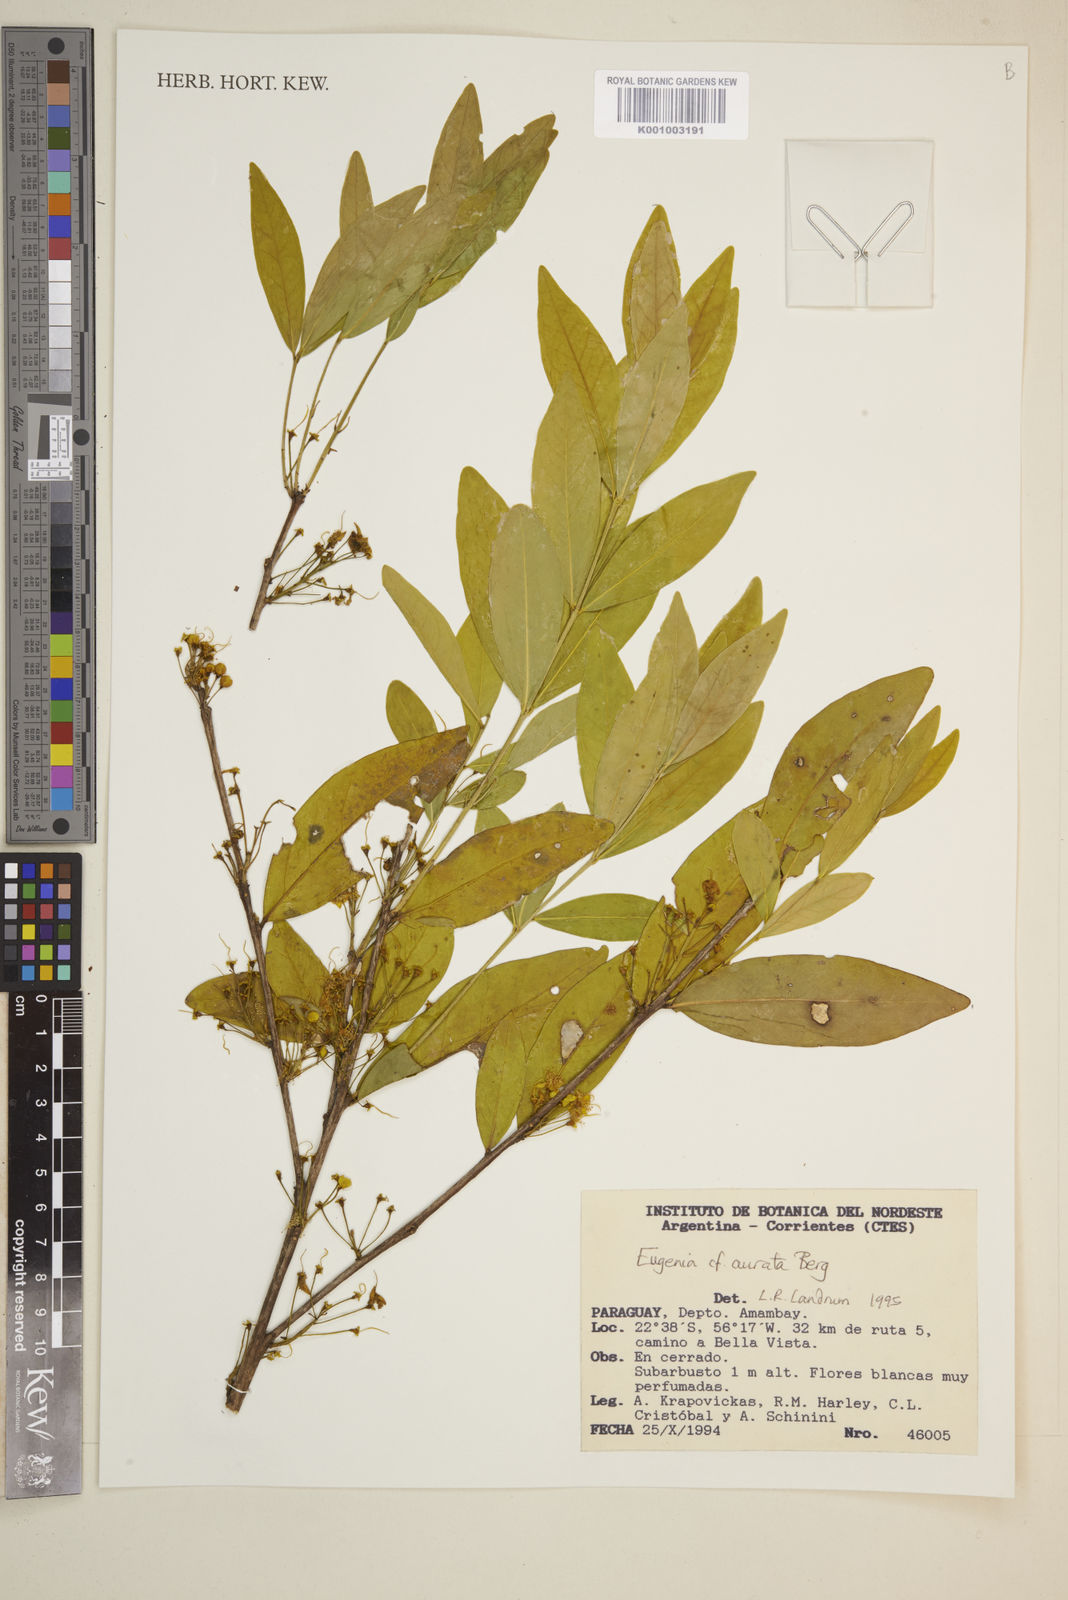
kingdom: Plantae
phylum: Tracheophyta
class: Magnoliopsida
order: Myrtales
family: Myrtaceae
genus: Eugenia
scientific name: Eugenia
